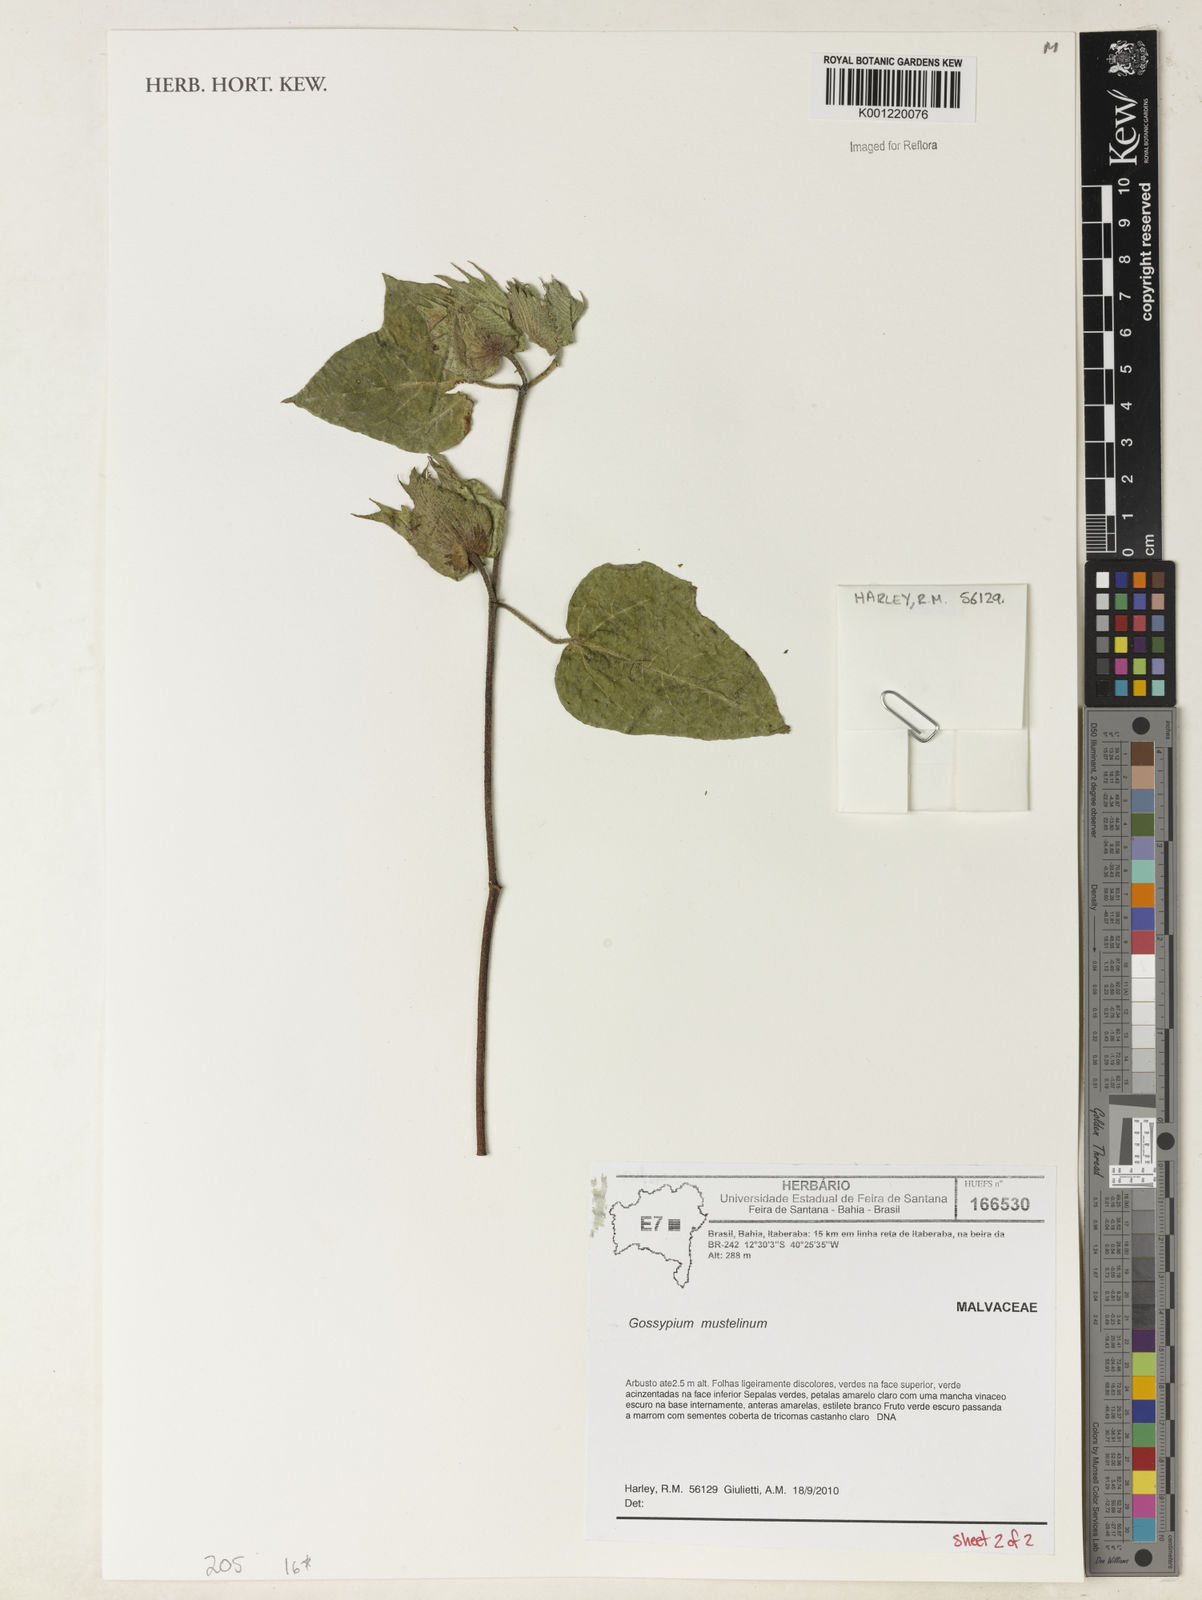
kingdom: Plantae
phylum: Tracheophyta
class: Magnoliopsida
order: Malvales
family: Malvaceae
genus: Gossypium
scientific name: Gossypium
